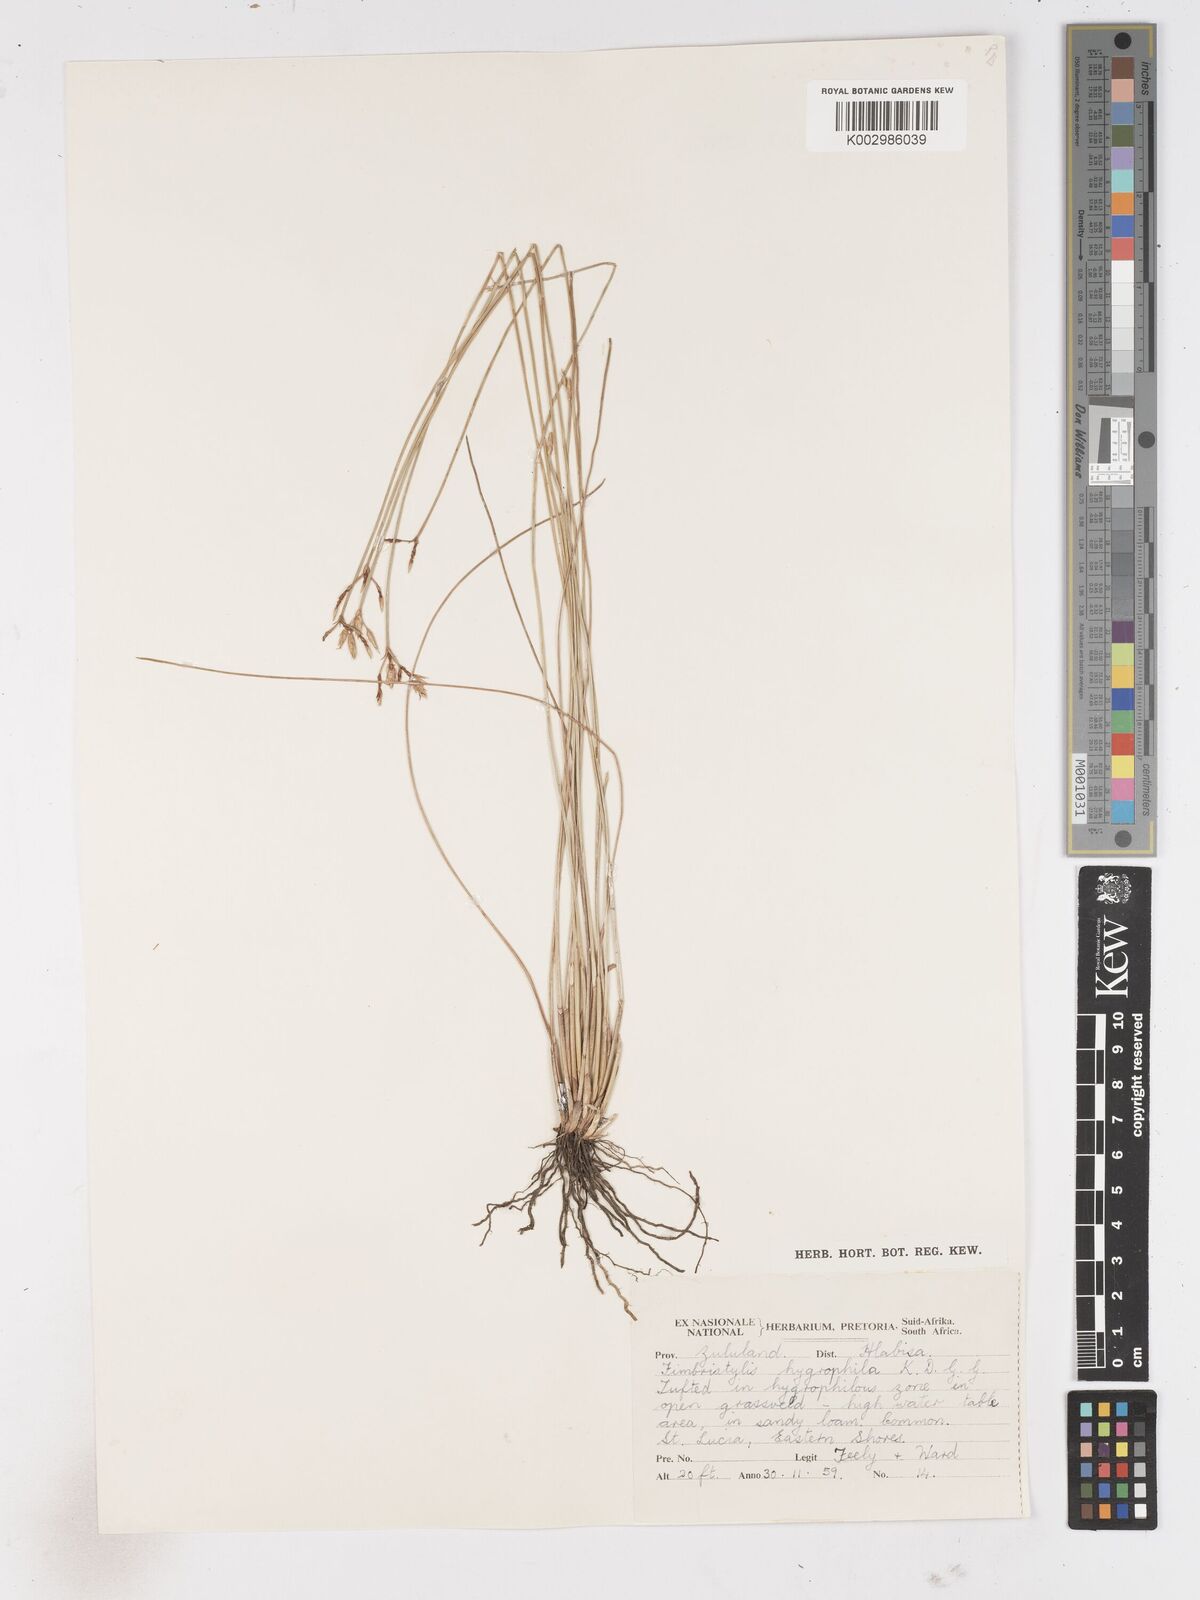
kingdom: Plantae
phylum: Tracheophyta
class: Liliopsida
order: Poales
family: Cyperaceae
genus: Zulustylis
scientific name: Zulustylis hygrophila
